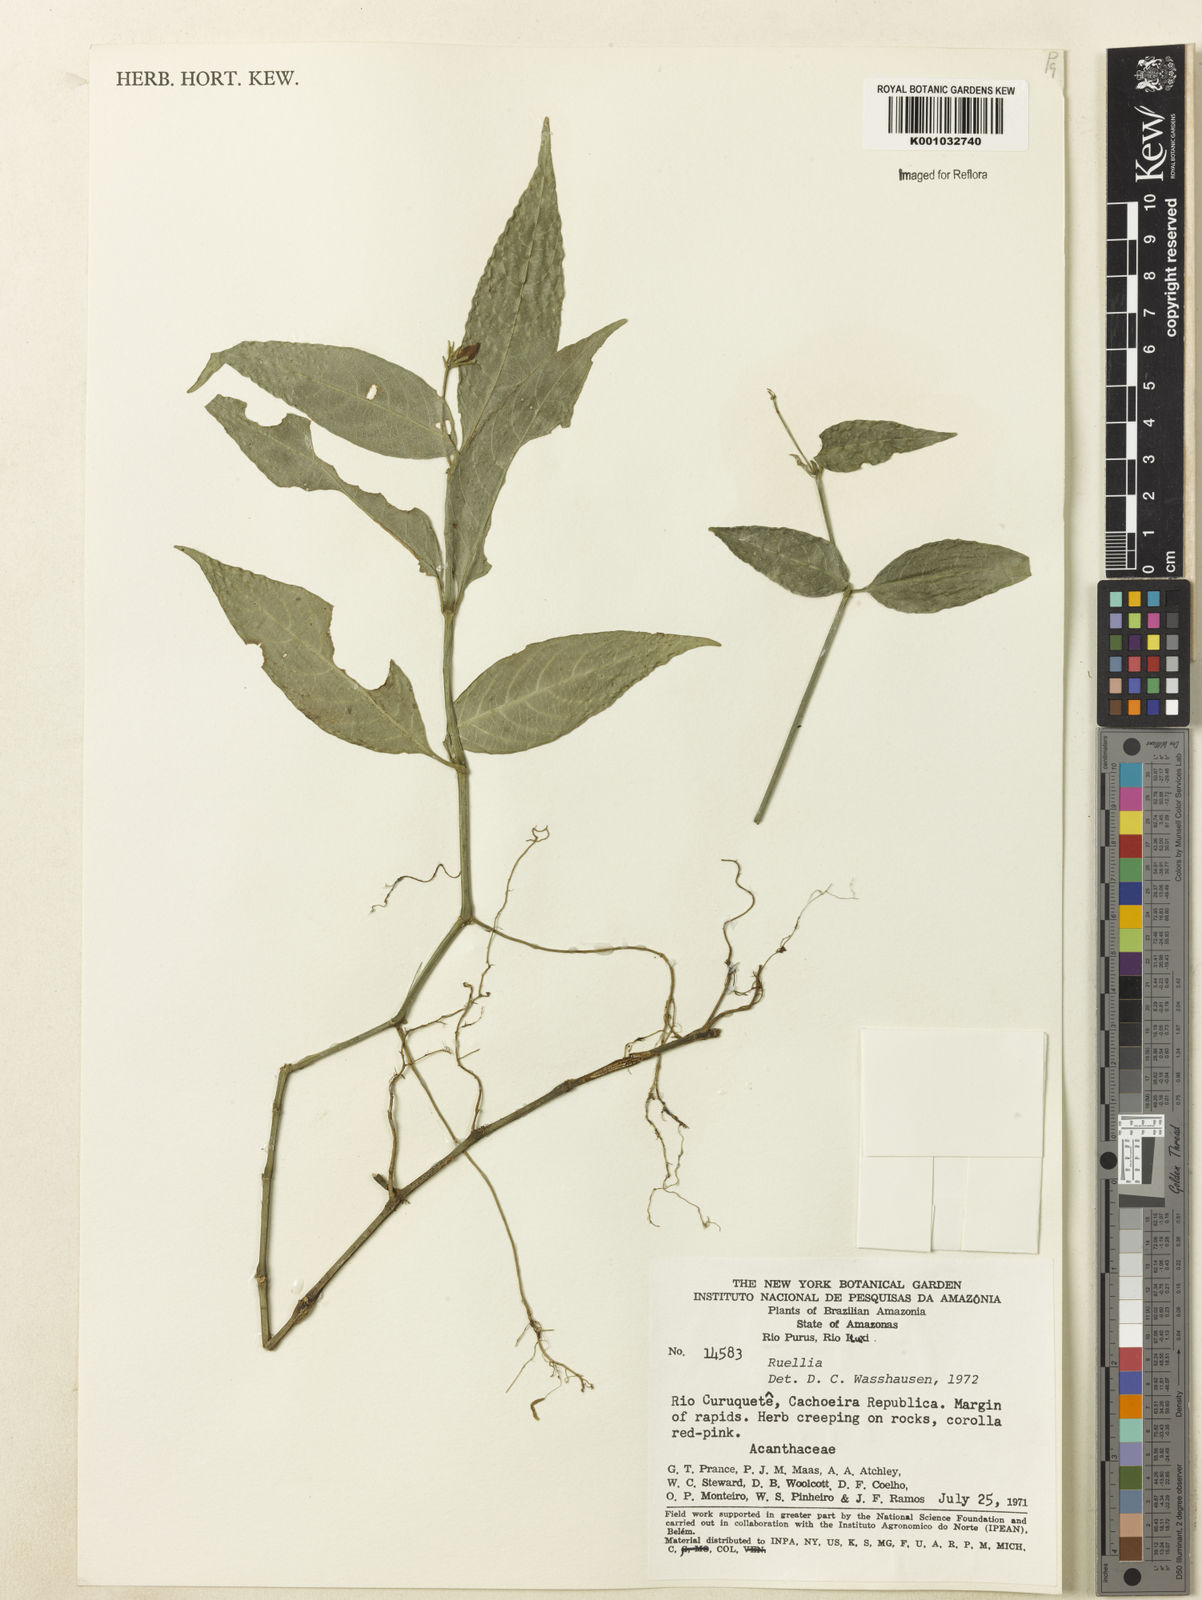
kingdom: Plantae
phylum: Tracheophyta
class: Magnoliopsida
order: Lamiales
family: Acanthaceae
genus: Ruellia
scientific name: Ruellia
